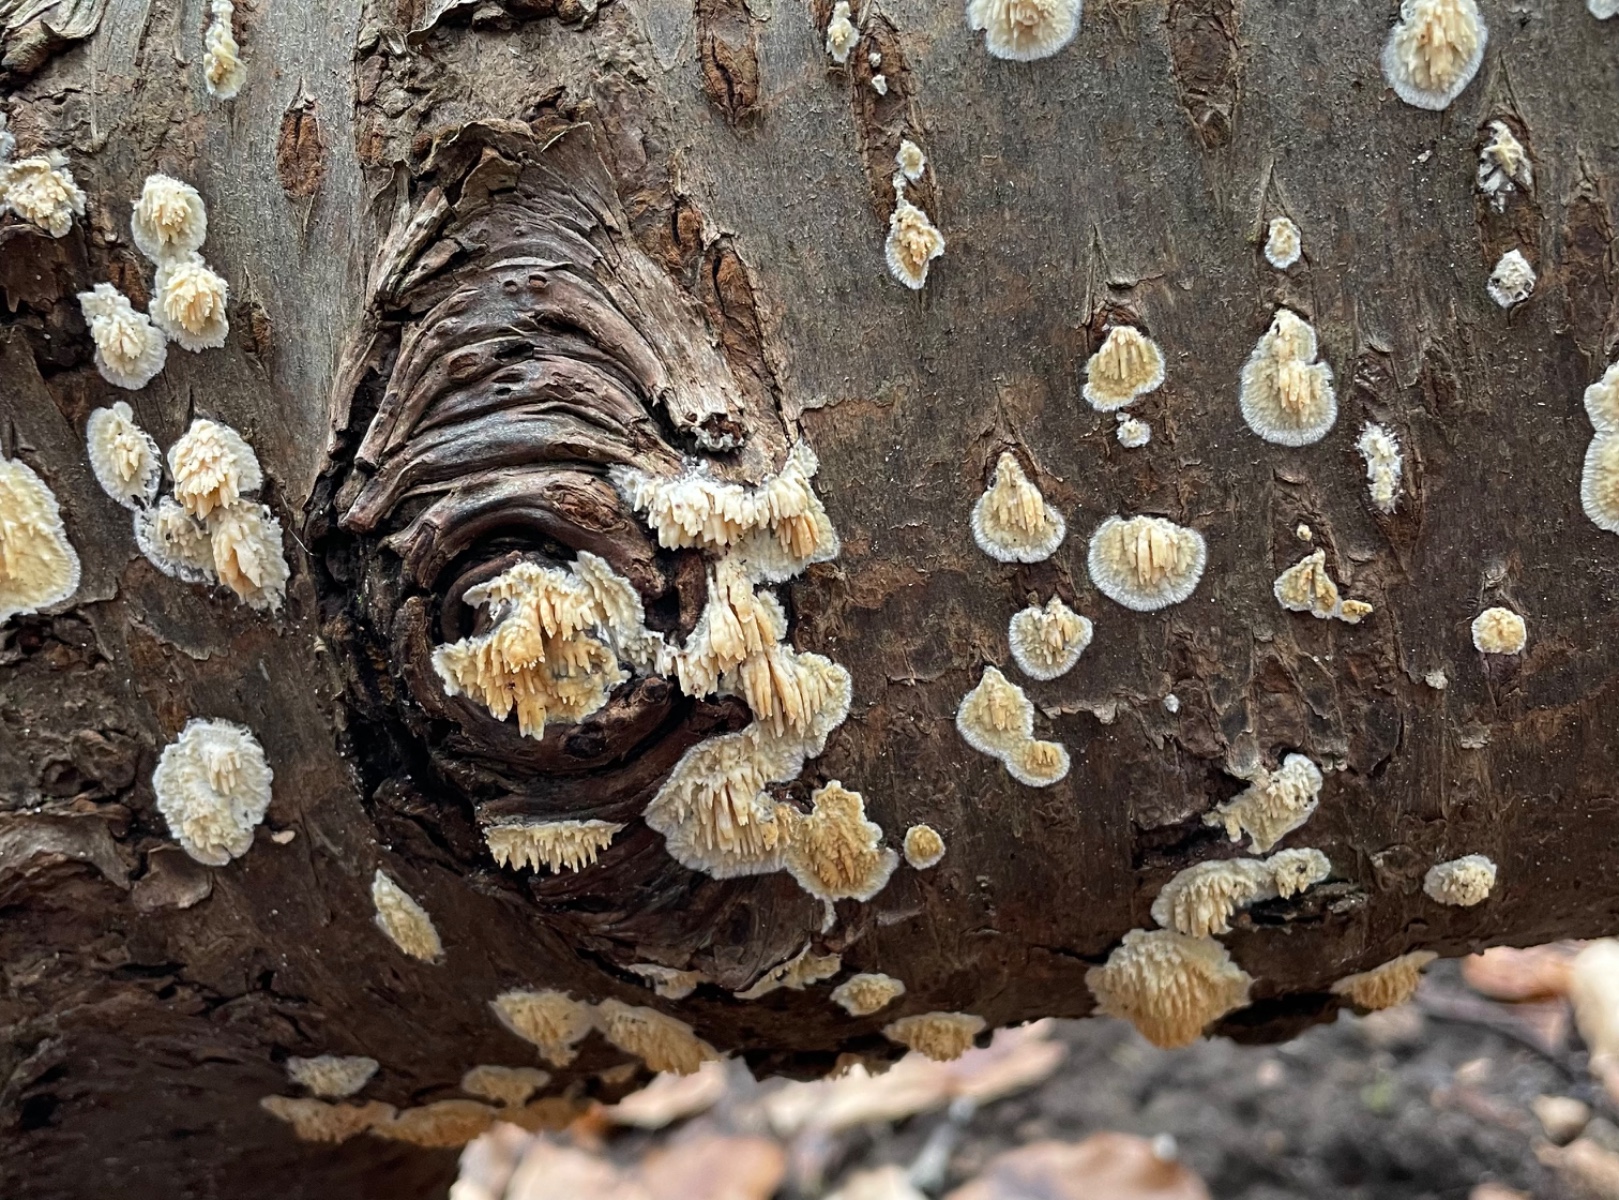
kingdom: Fungi
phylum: Basidiomycota
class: Agaricomycetes
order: Hymenochaetales
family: Schizoporaceae
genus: Xylodon
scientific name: Xylodon radula
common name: grovtandet kalkskind
